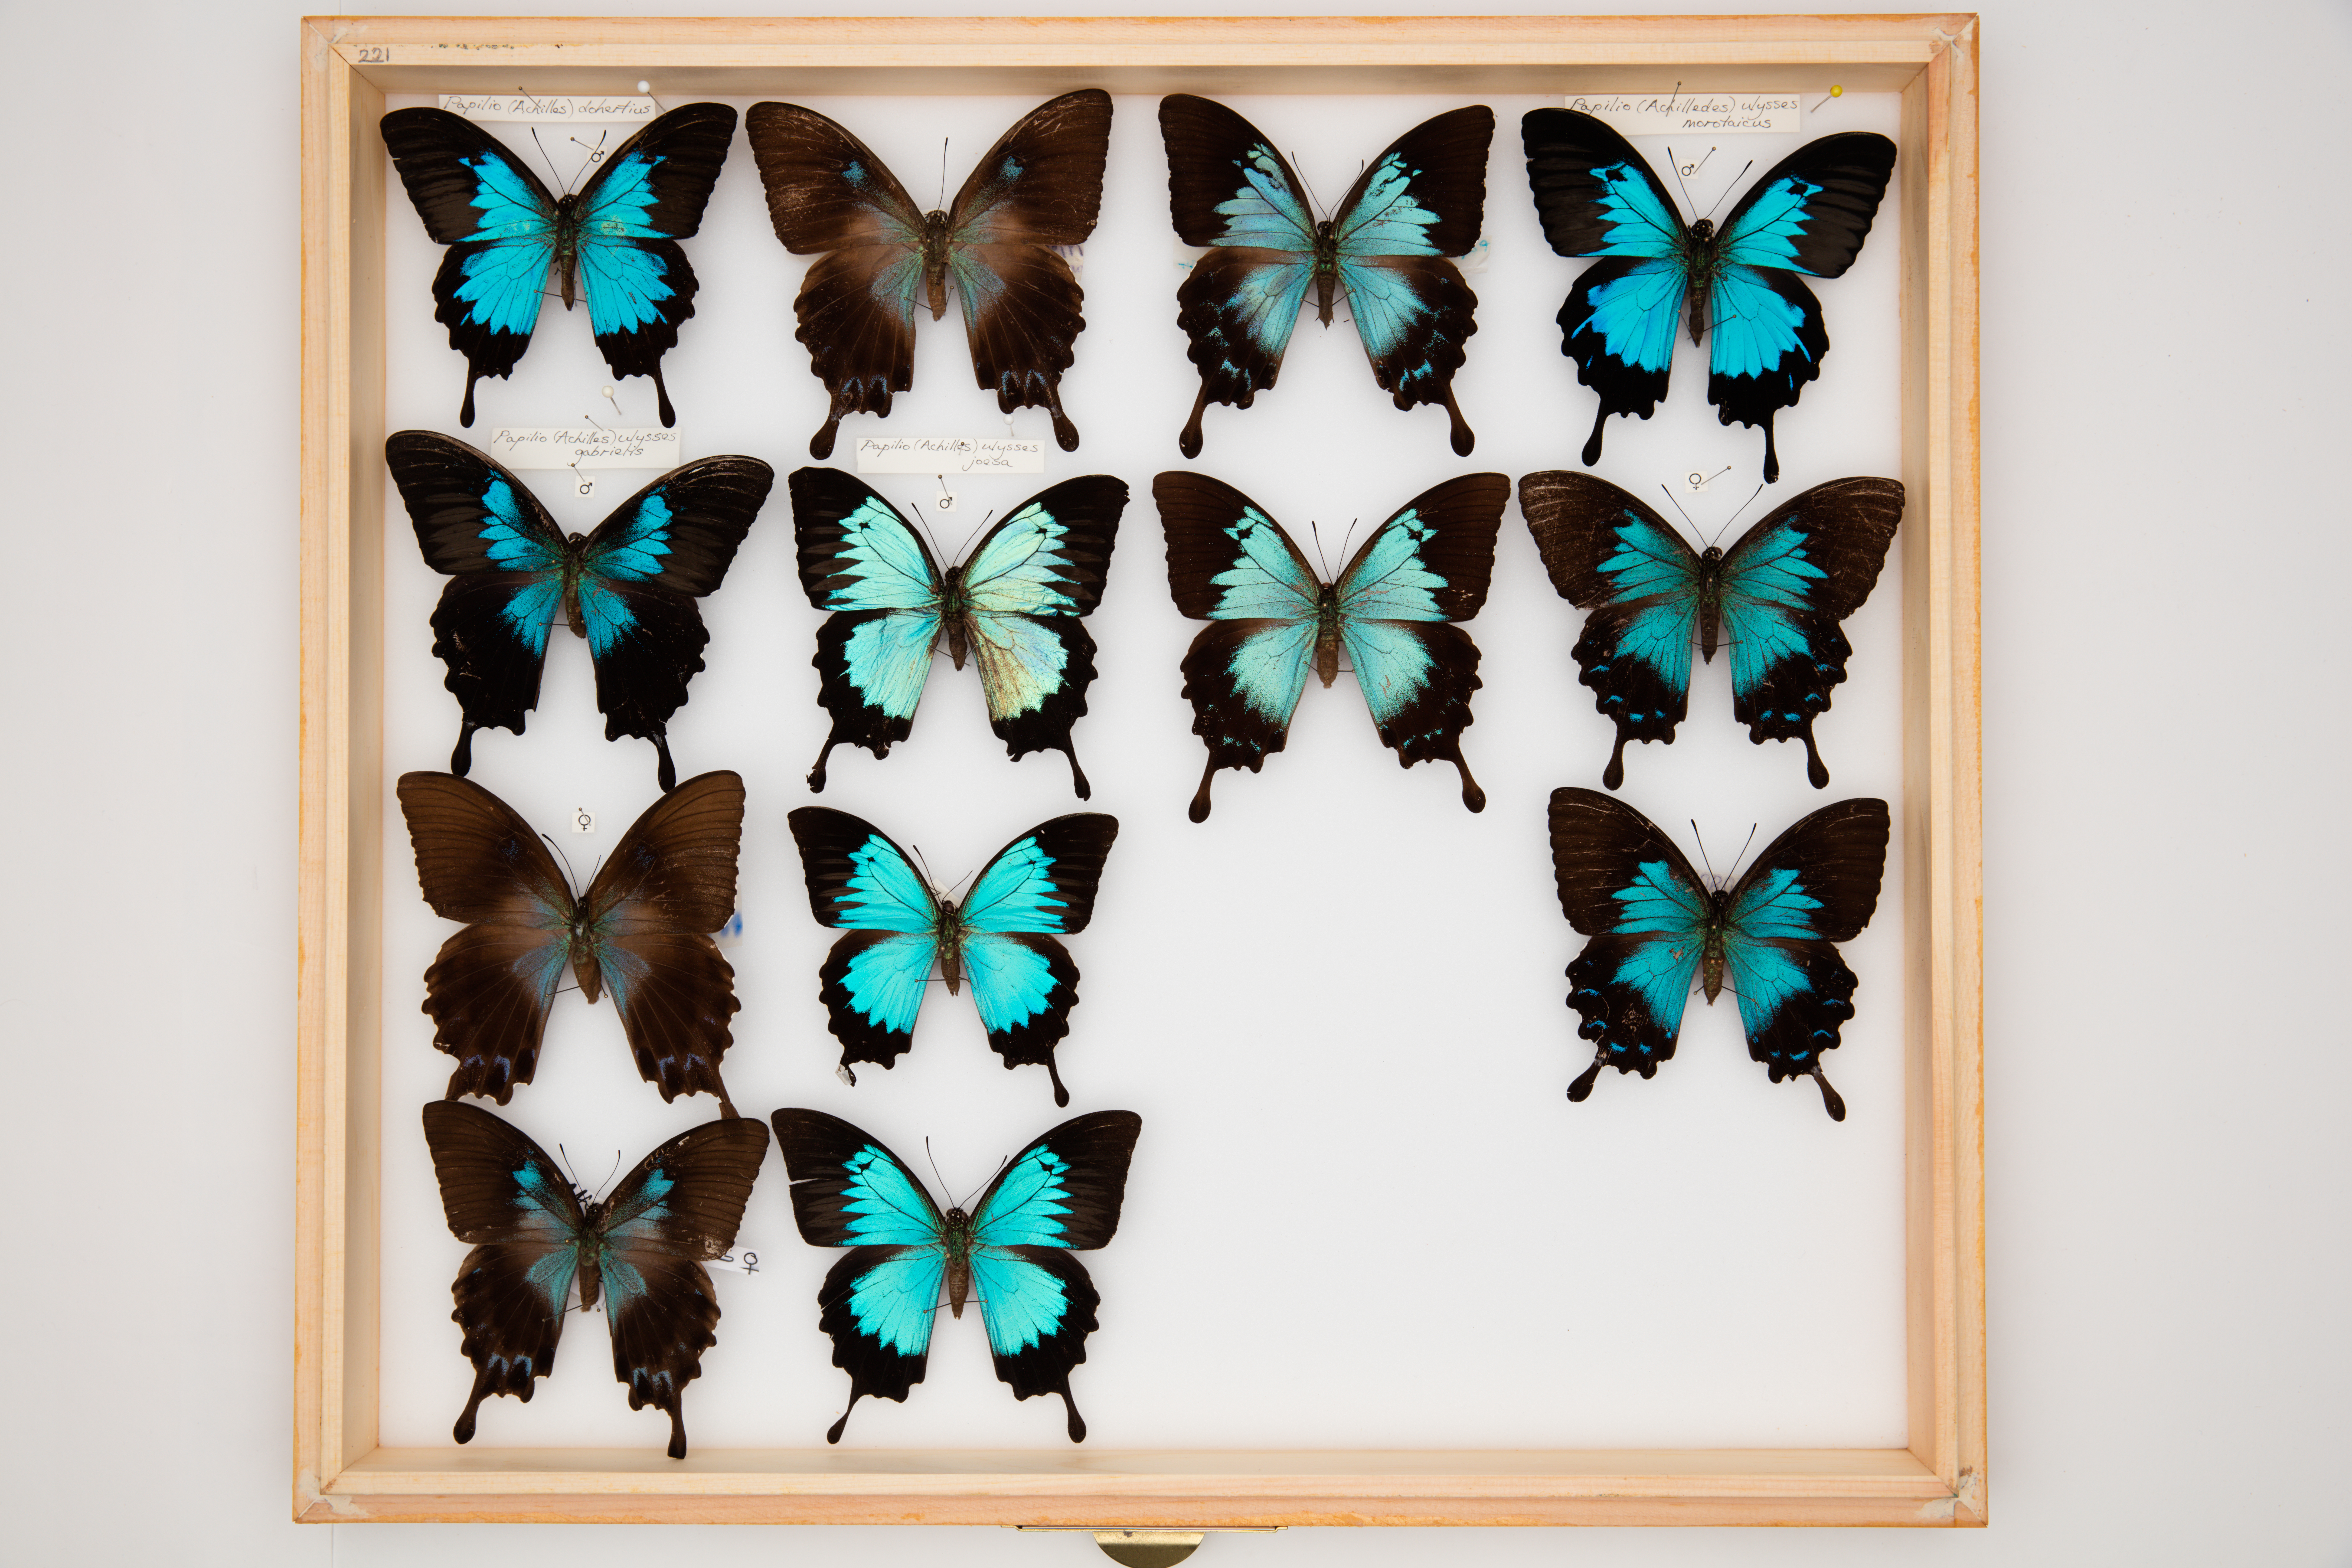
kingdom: Animalia
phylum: Arthropoda
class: Insecta
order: Lepidoptera
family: Papilionidae
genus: Papilio
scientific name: Papilio ulysses
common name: Blue emperor
